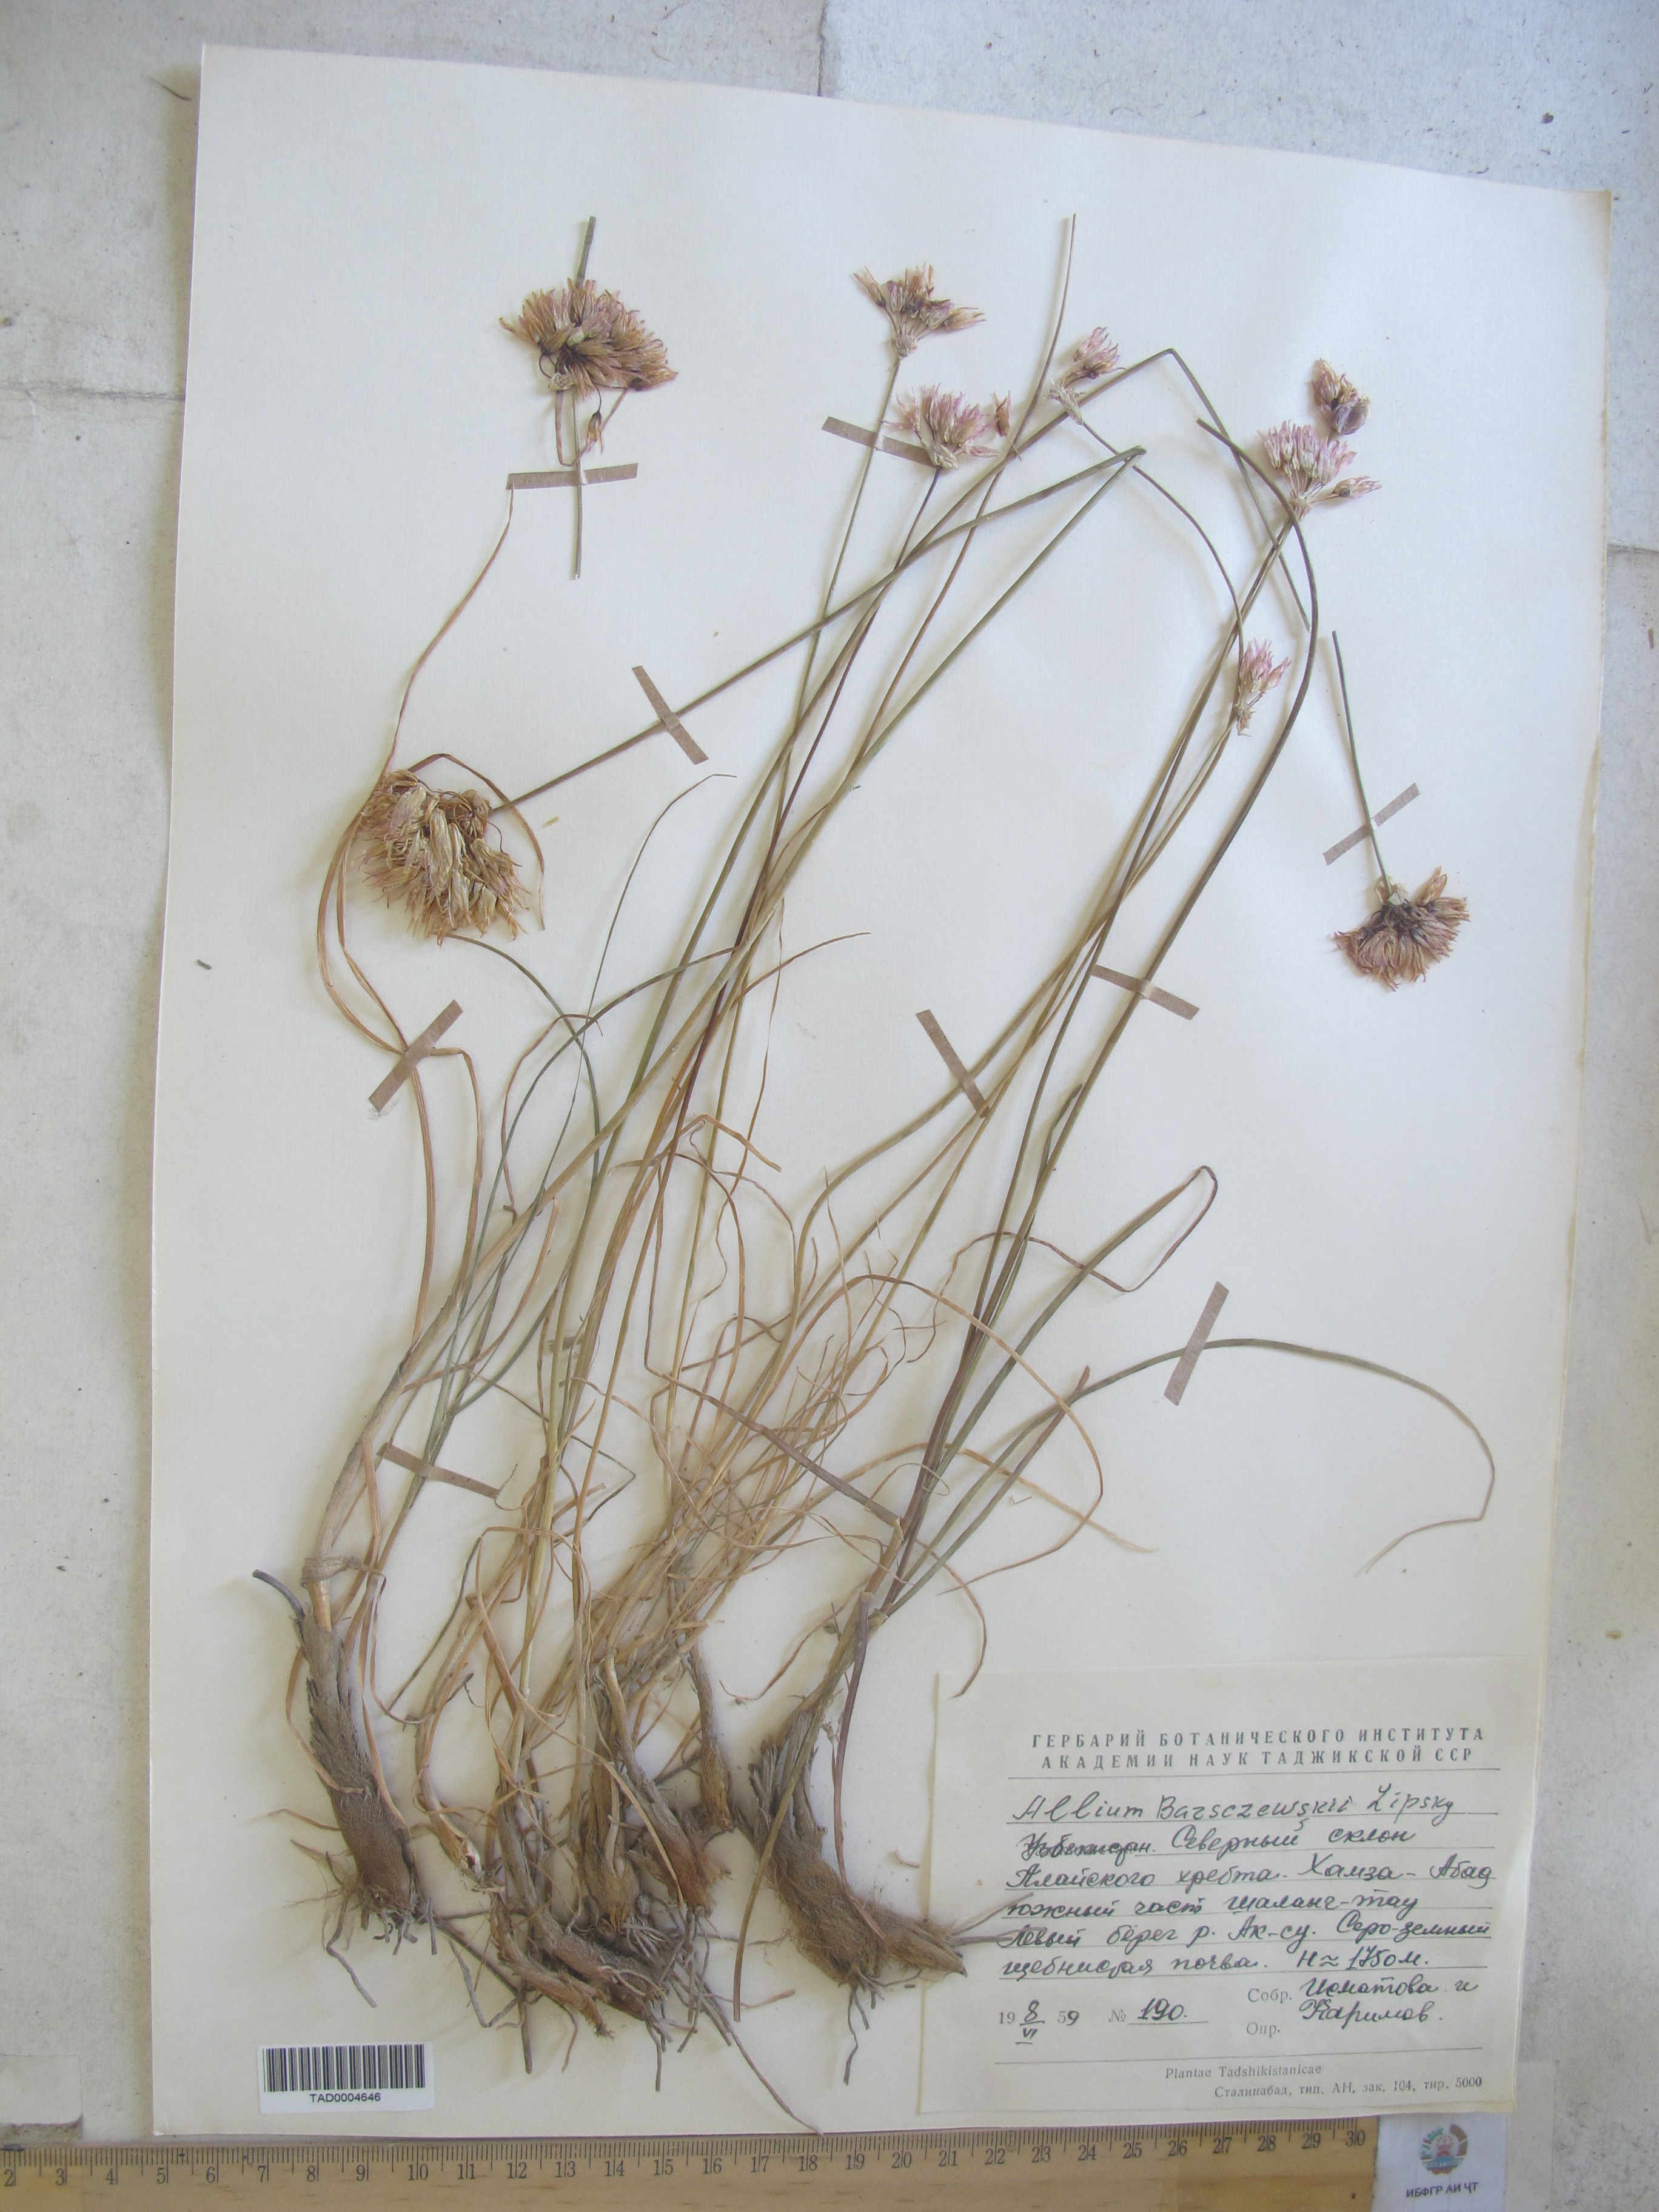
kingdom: Plantae
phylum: Tracheophyta
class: Liliopsida
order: Asparagales
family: Amaryllidaceae
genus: Allium
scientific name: Allium barsczewskii
